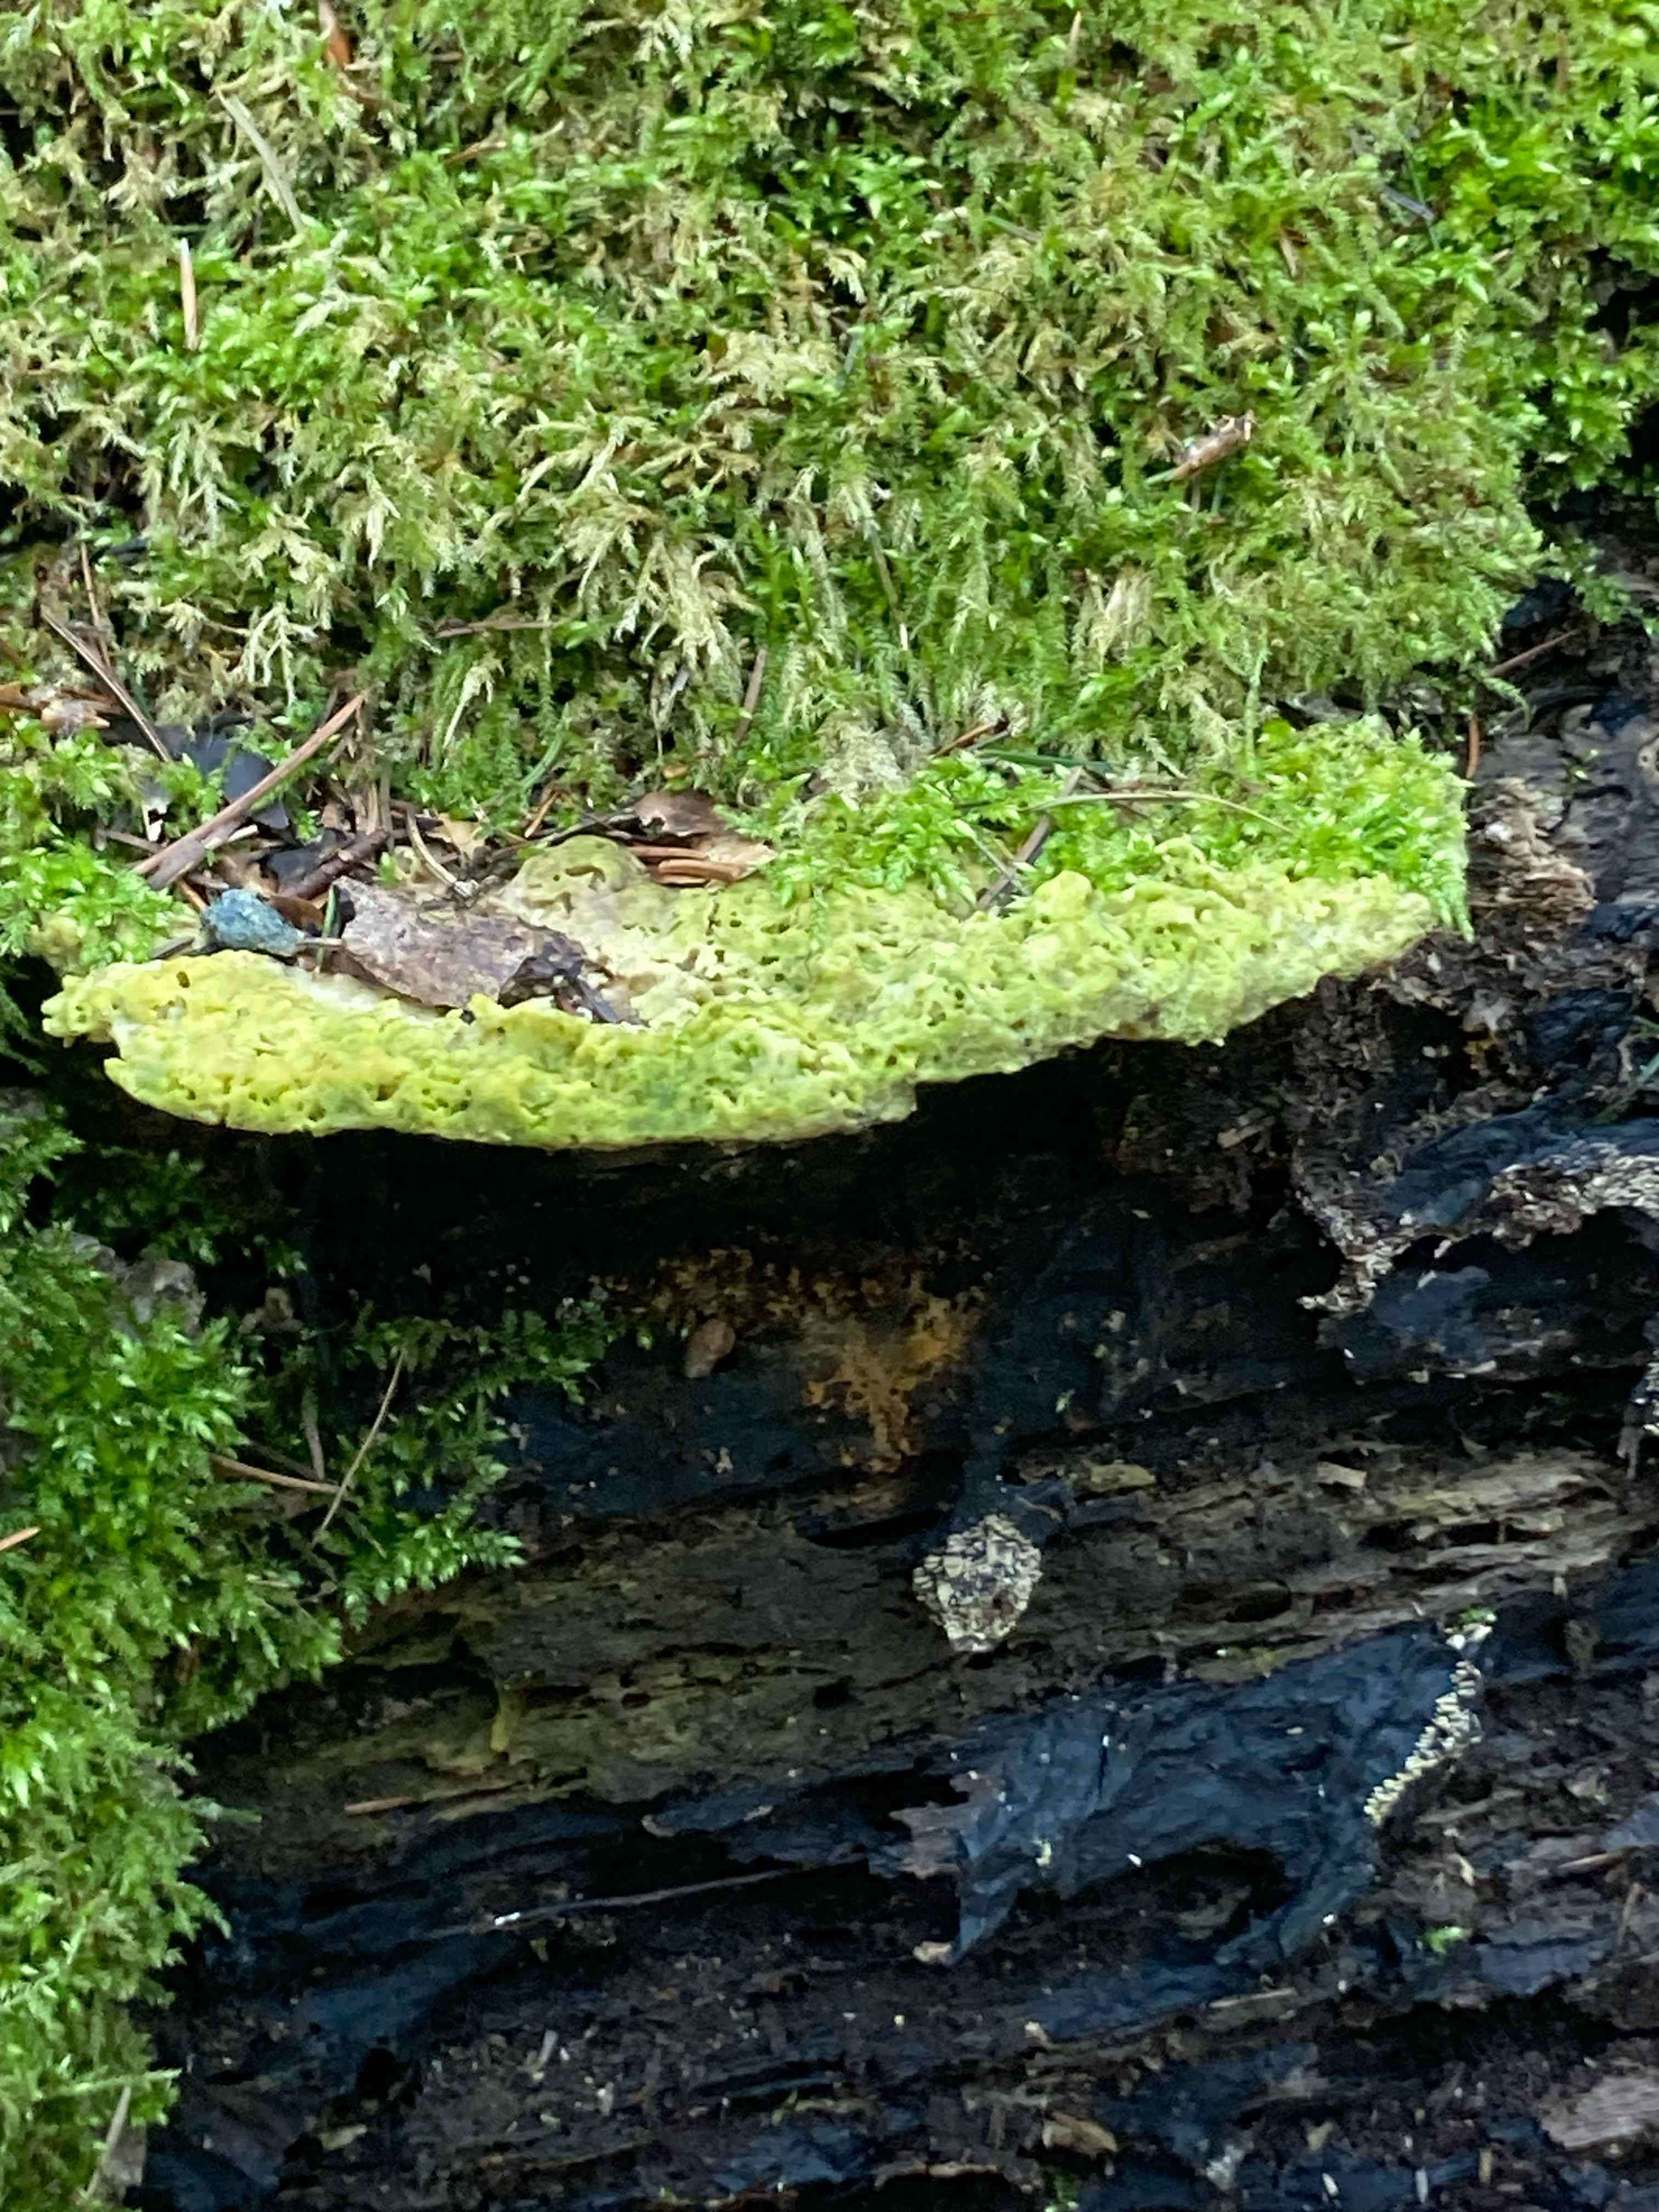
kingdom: Fungi
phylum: Basidiomycota
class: Agaricomycetes
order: Polyporales
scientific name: Polyporales
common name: poresvampordenen
